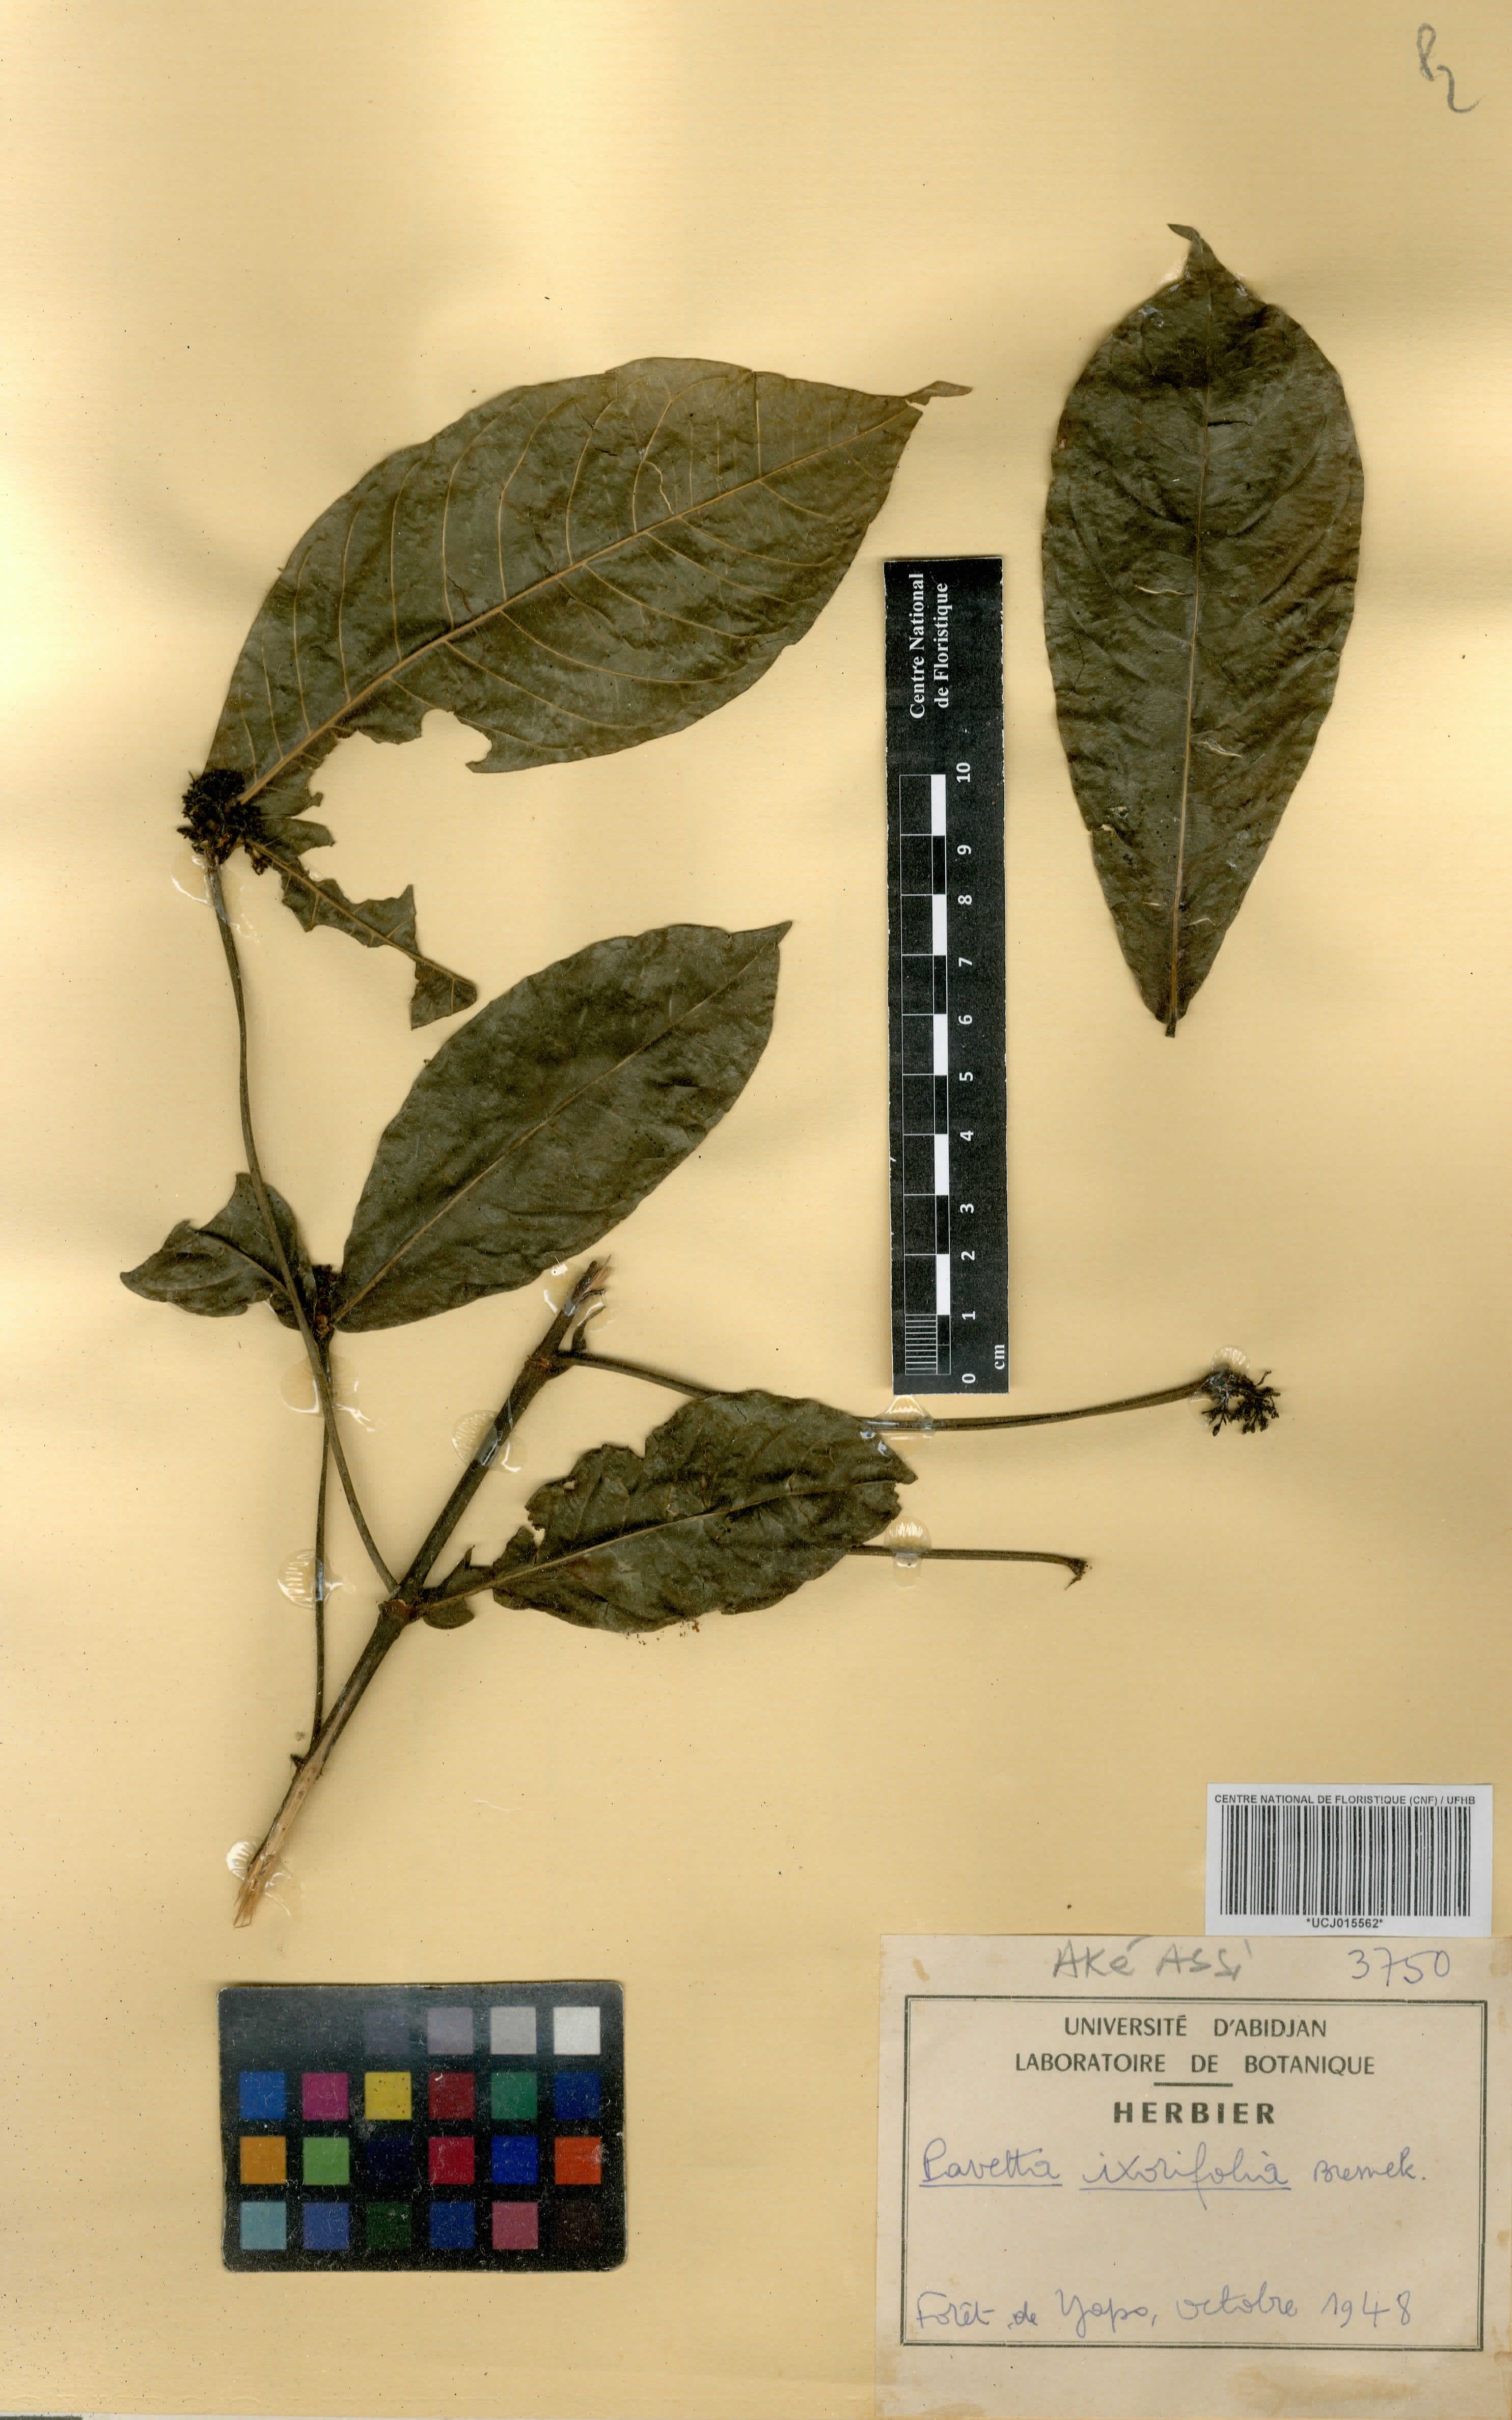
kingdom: Plantae
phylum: Tracheophyta
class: Magnoliopsida
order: Gentianales
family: Rubiaceae
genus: Pavetta
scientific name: Pavetta ixorifolia
